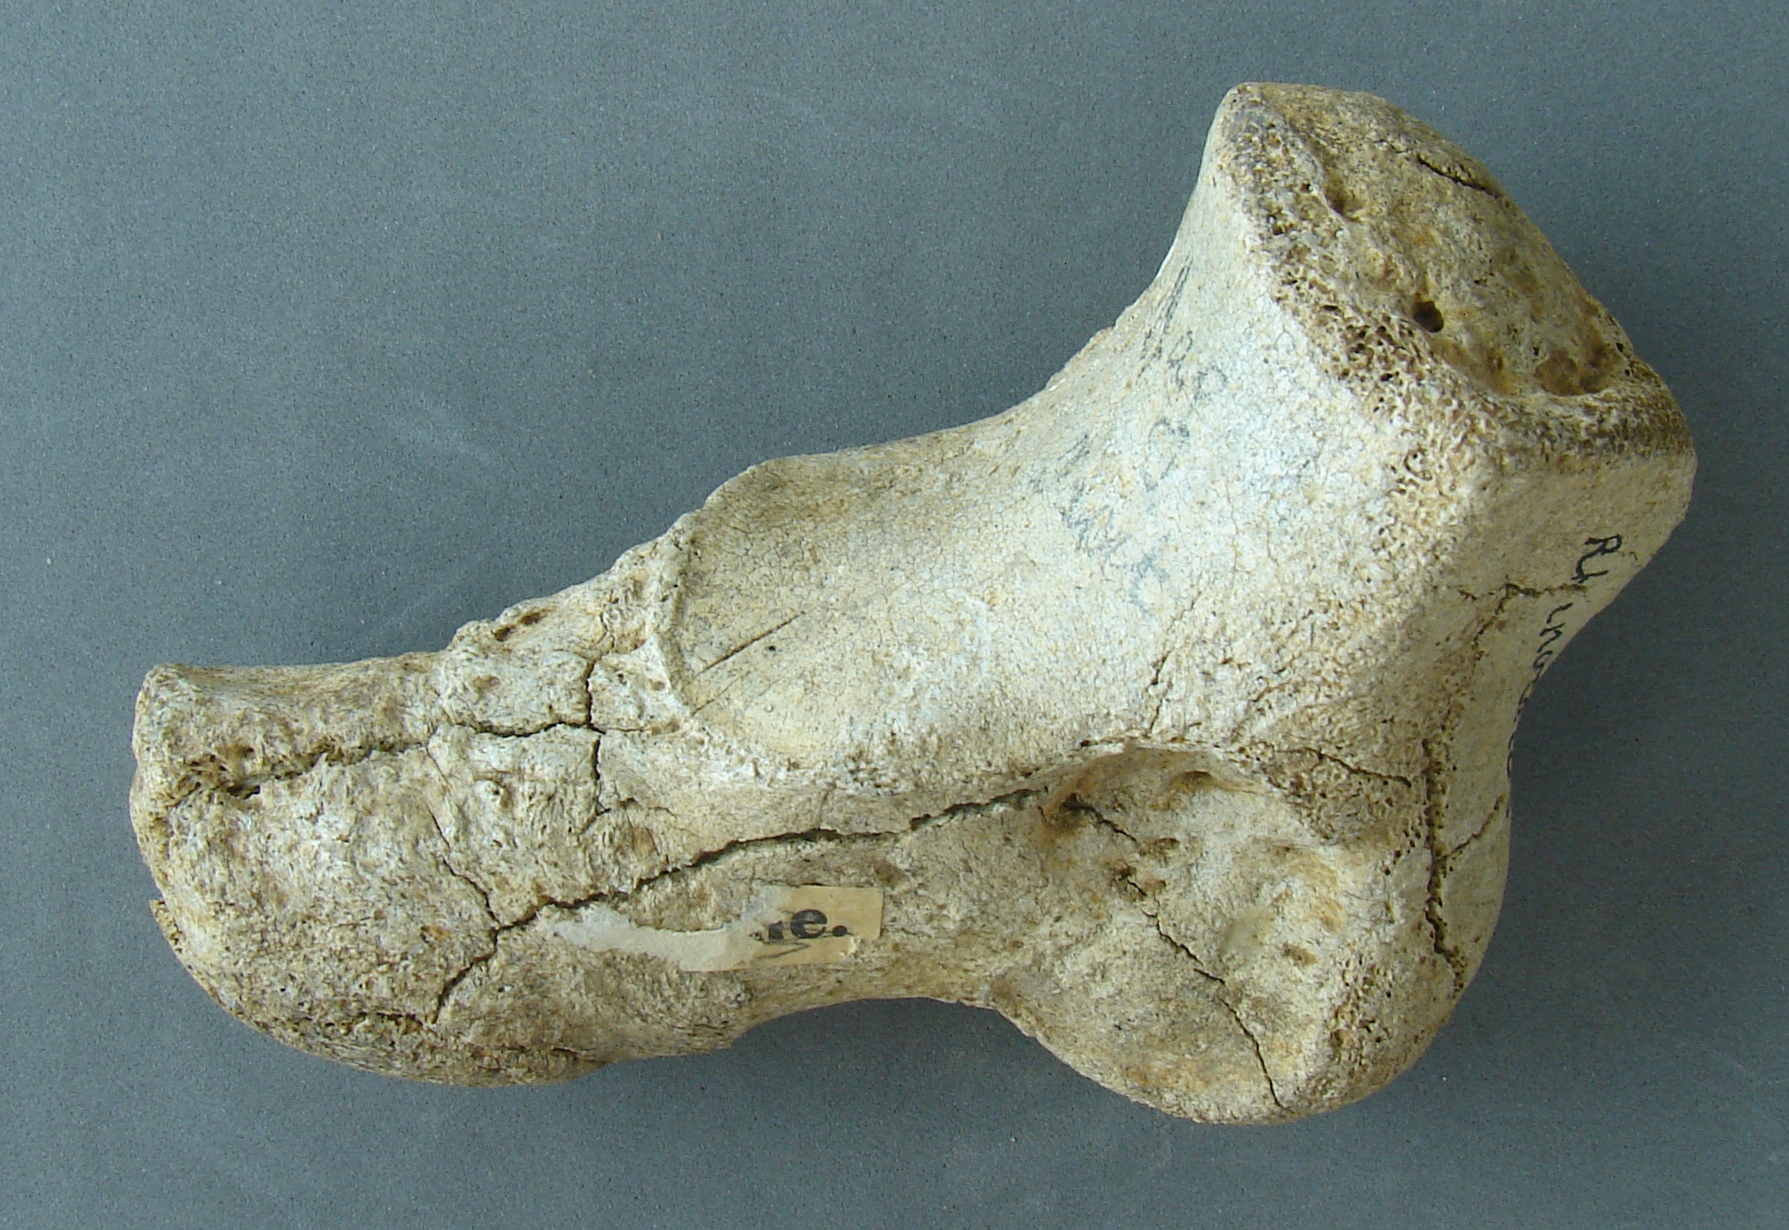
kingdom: Animalia
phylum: Chordata
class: Mammalia
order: Perissodactyla
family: Rhinocerotidae
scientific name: Rhinocerotidae
